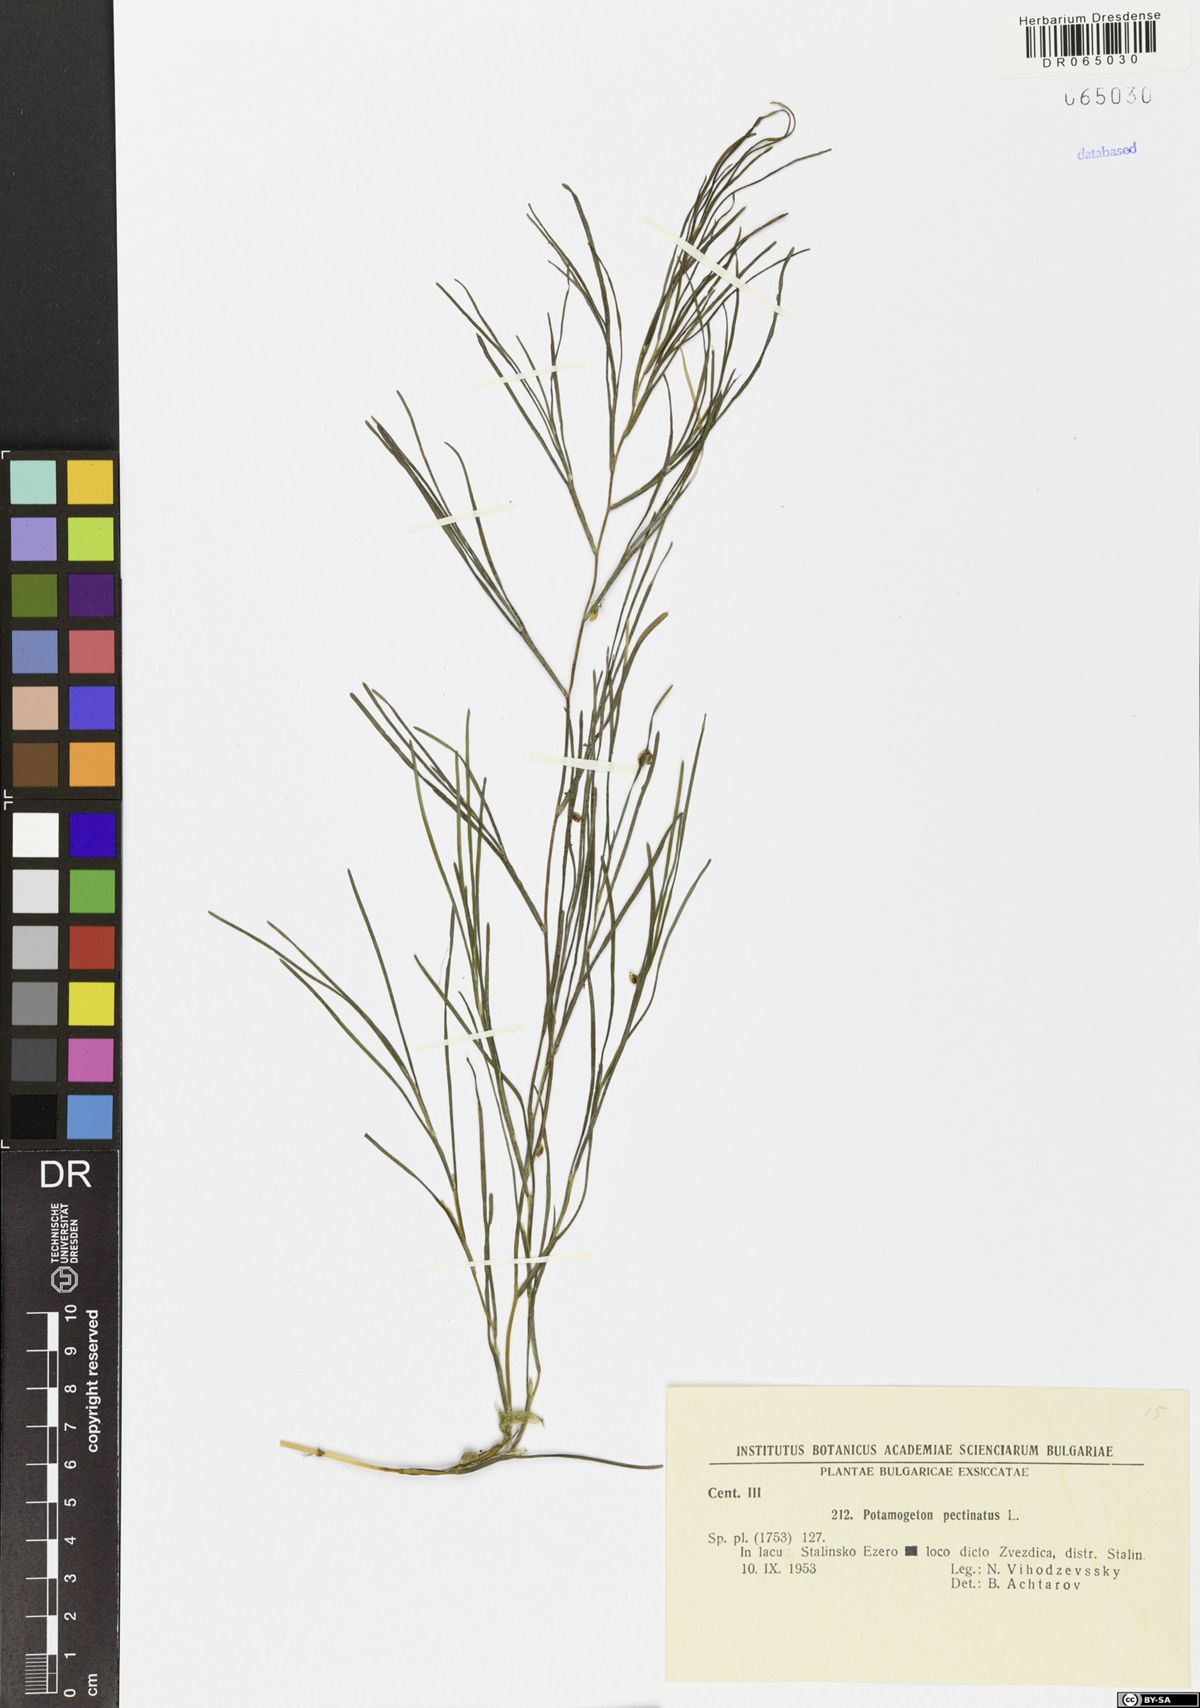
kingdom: Plantae
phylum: Tracheophyta
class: Liliopsida
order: Alismatales
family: Potamogetonaceae
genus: Stuckenia
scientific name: Stuckenia pectinata
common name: Sago pondweed
